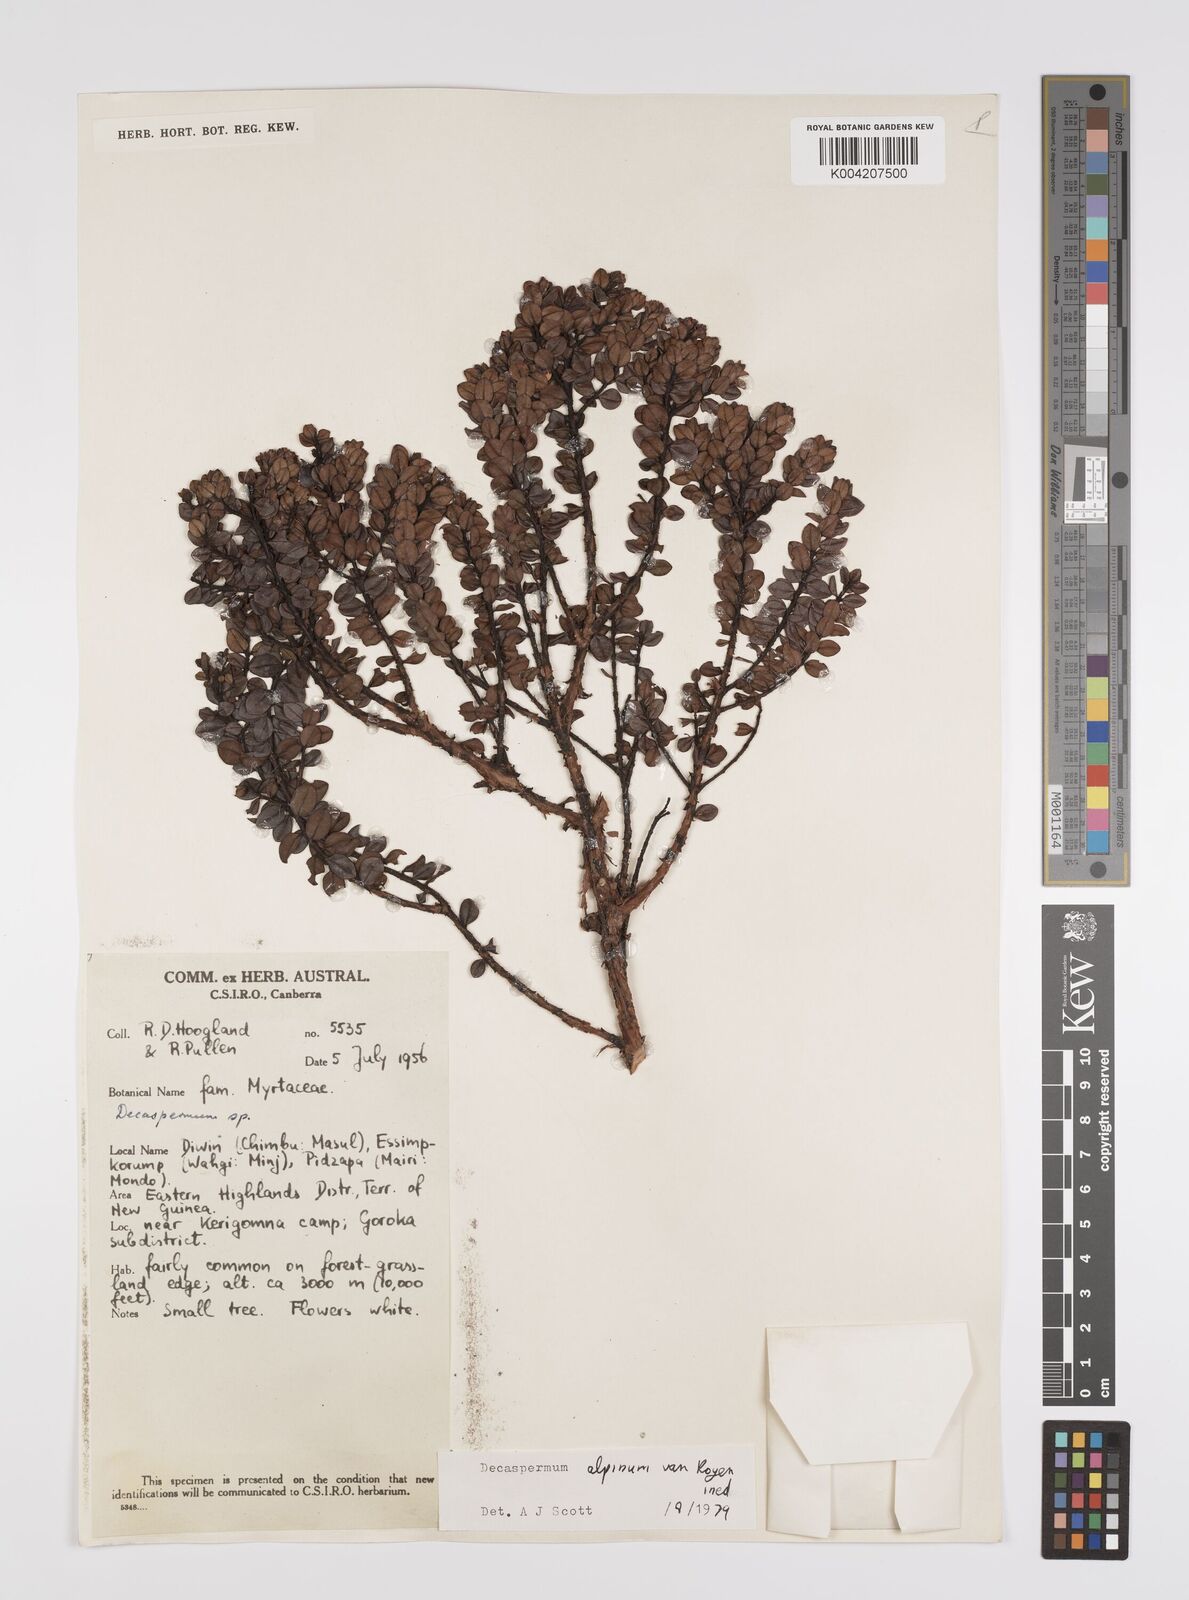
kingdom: Plantae
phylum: Tracheophyta
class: Magnoliopsida
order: Myrtales
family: Myrtaceae
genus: Decaspermum
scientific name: Decaspermum alpinum
